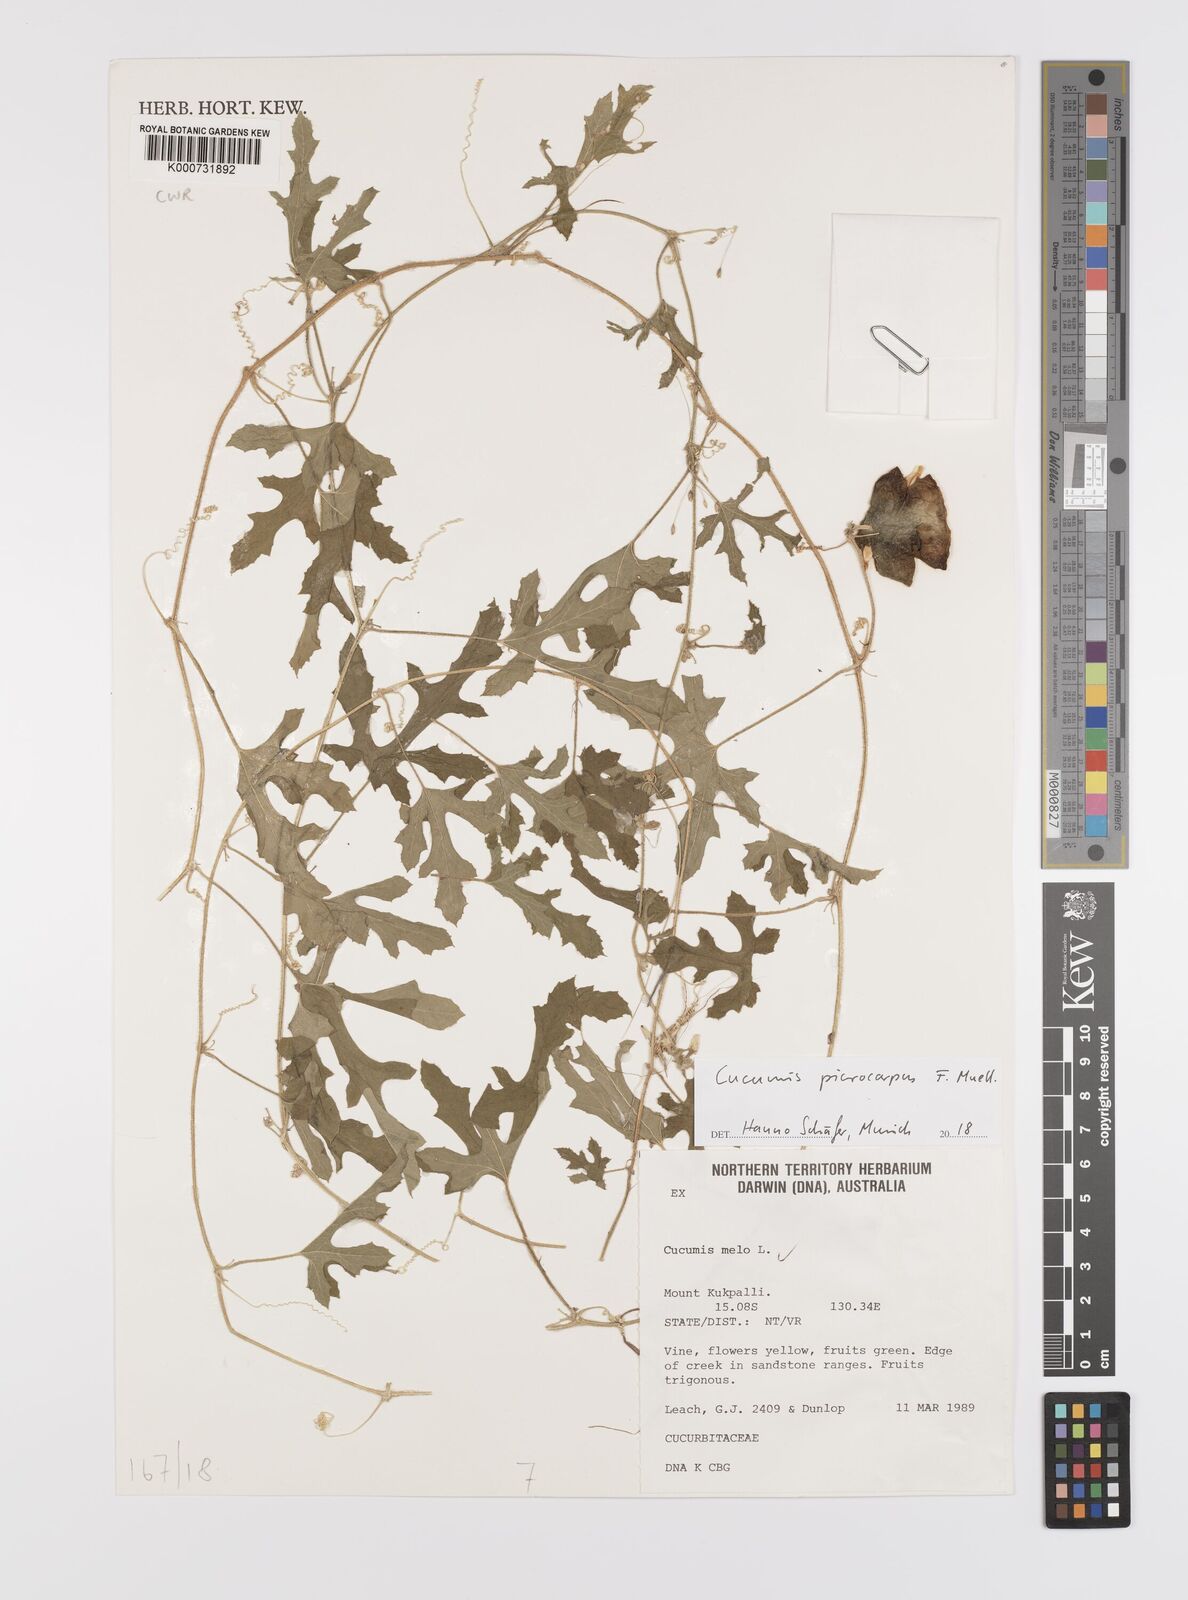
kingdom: Plantae
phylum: Tracheophyta
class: Magnoliopsida
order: Cucurbitales
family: Cucurbitaceae
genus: Cucumis
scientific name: Cucumis picrocarpus
